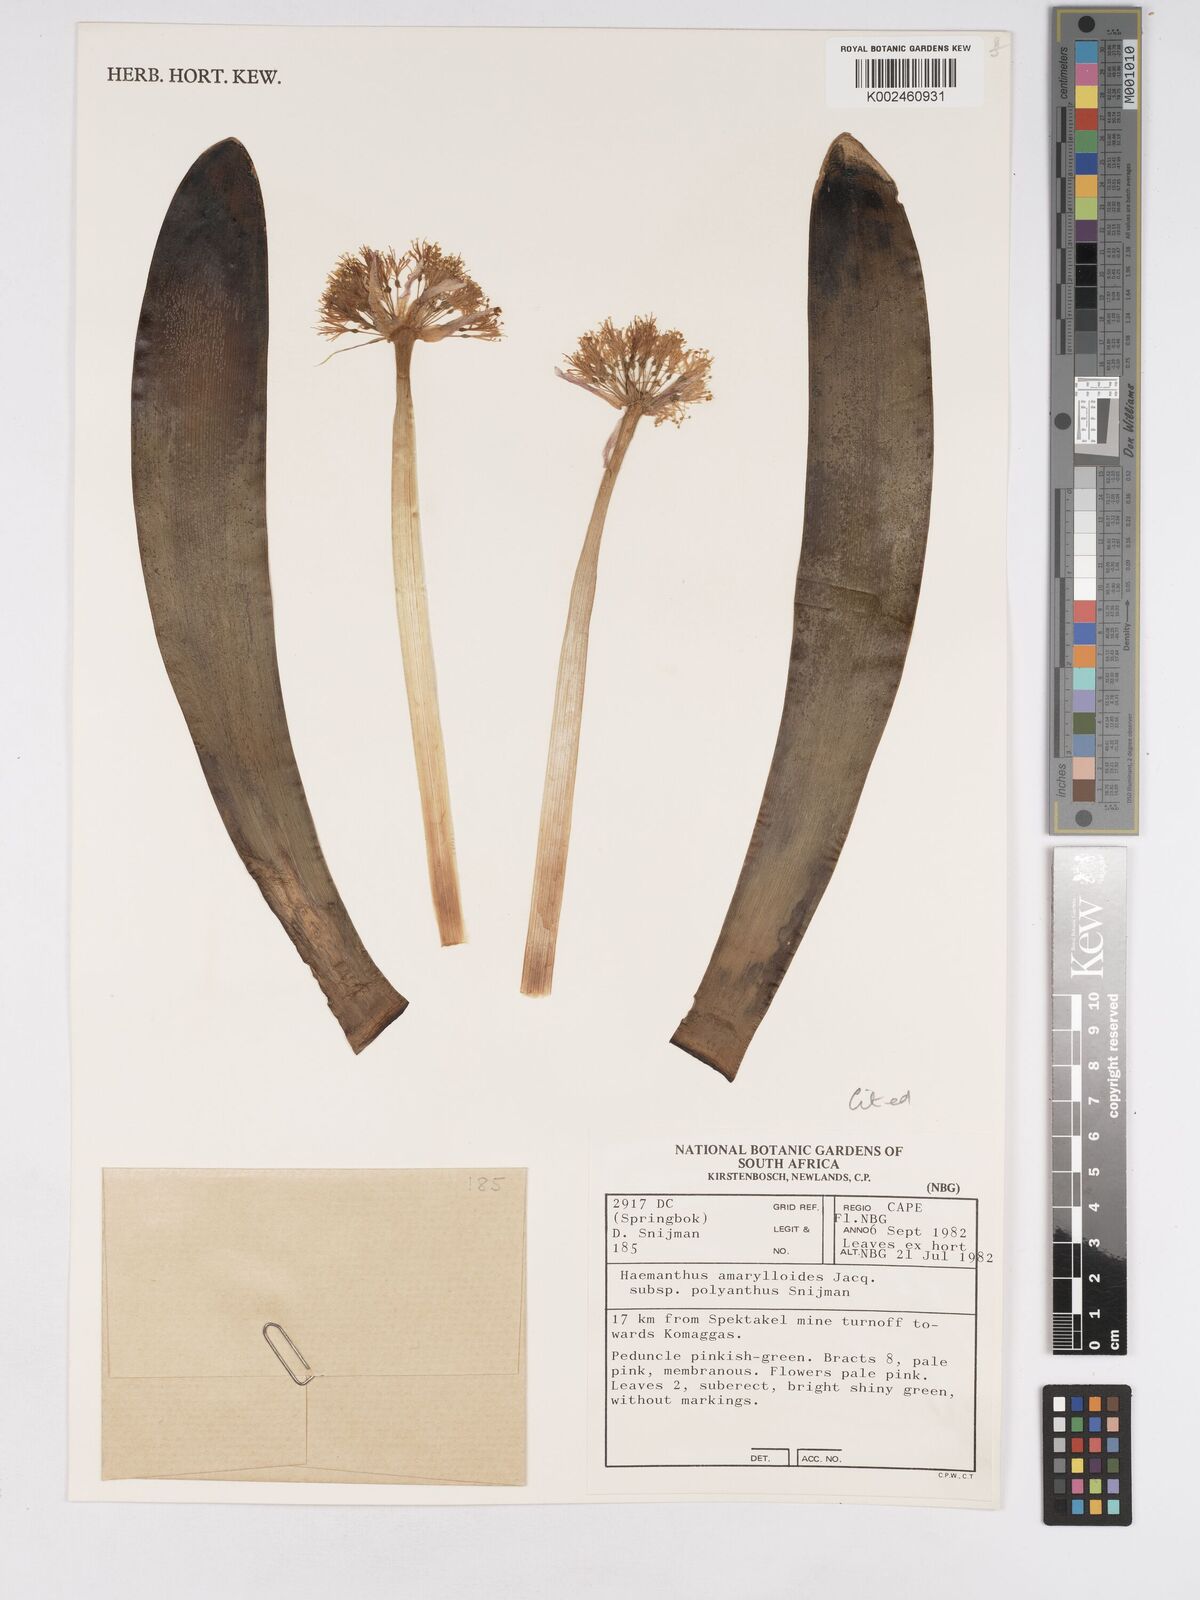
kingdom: Plantae
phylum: Tracheophyta
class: Liliopsida
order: Asparagales
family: Amaryllidaceae
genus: Haemanthus
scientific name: Haemanthus amarylloides
